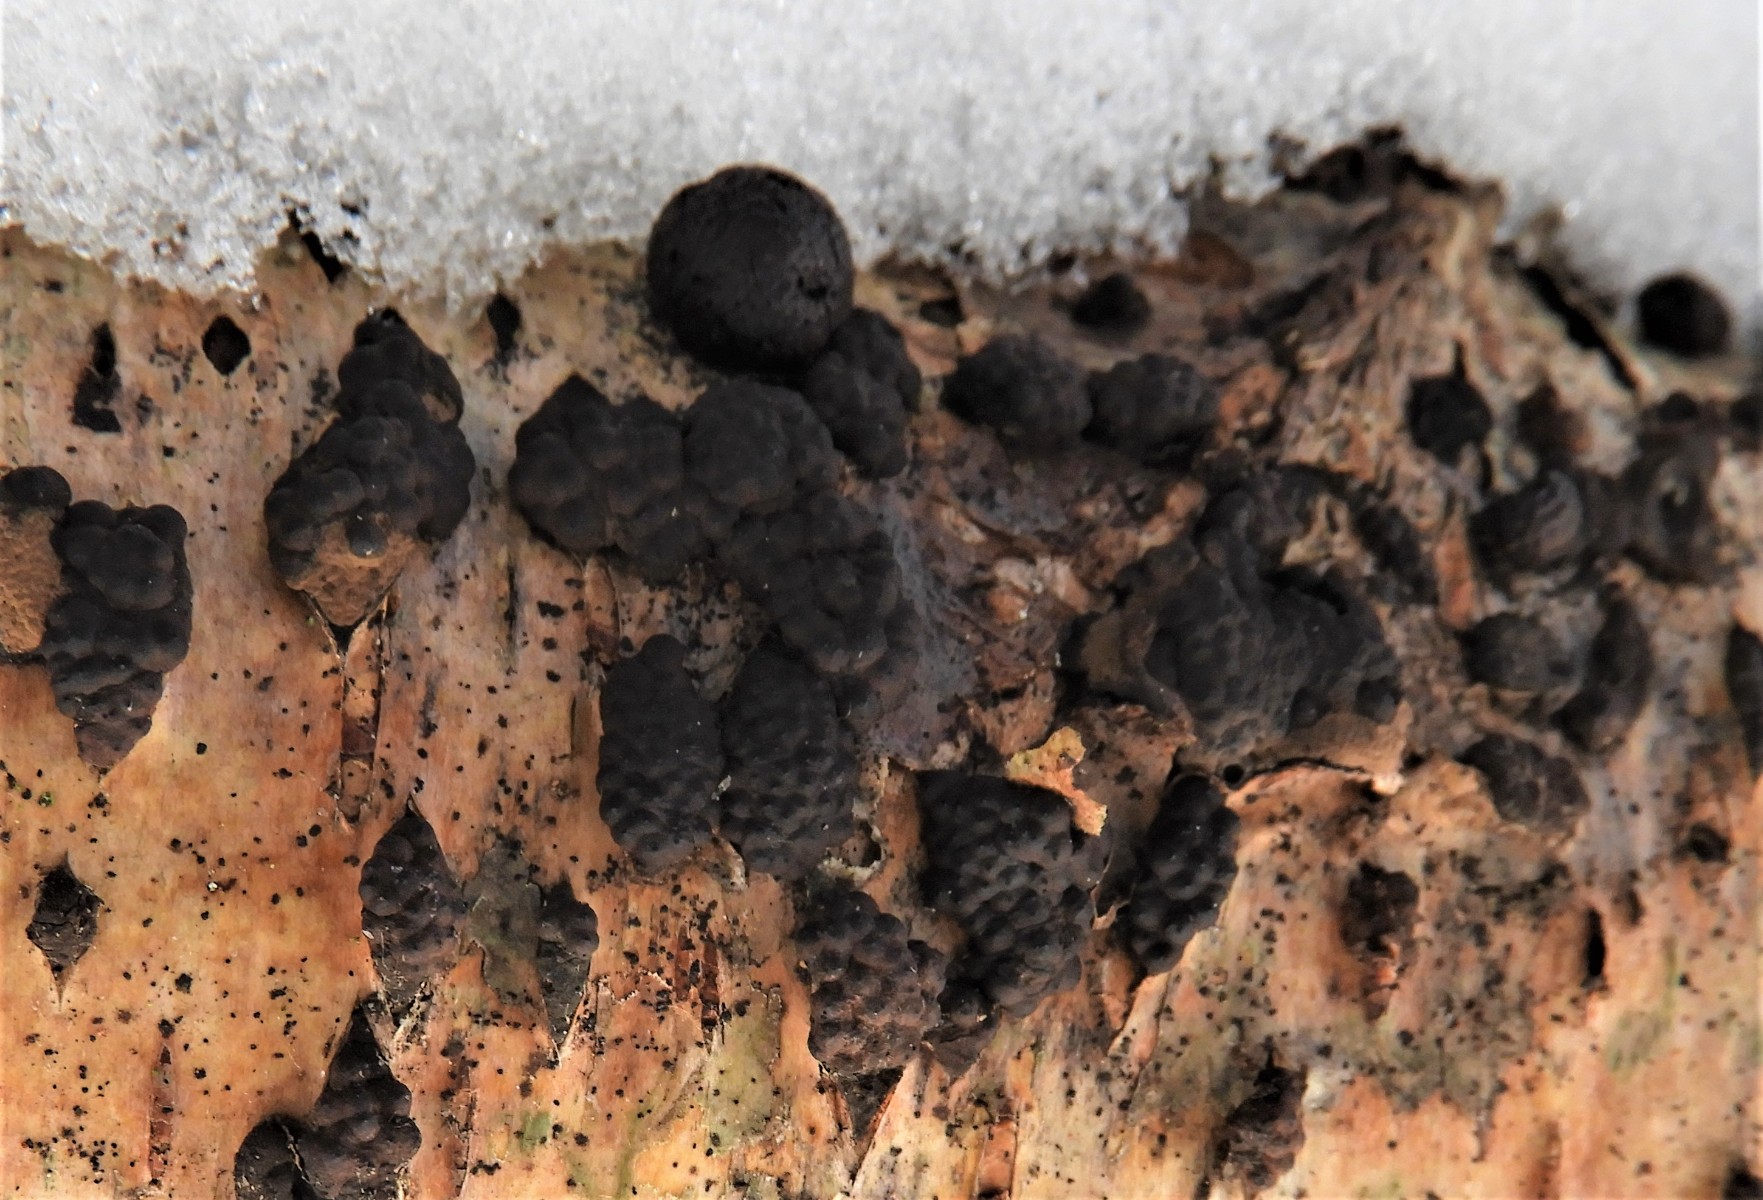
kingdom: Fungi
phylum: Ascomycota
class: Sordariomycetes
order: Xylariales
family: Hypoxylaceae
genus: Jackrogersella
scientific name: Jackrogersella multiformis
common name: foranderlig kulbær
